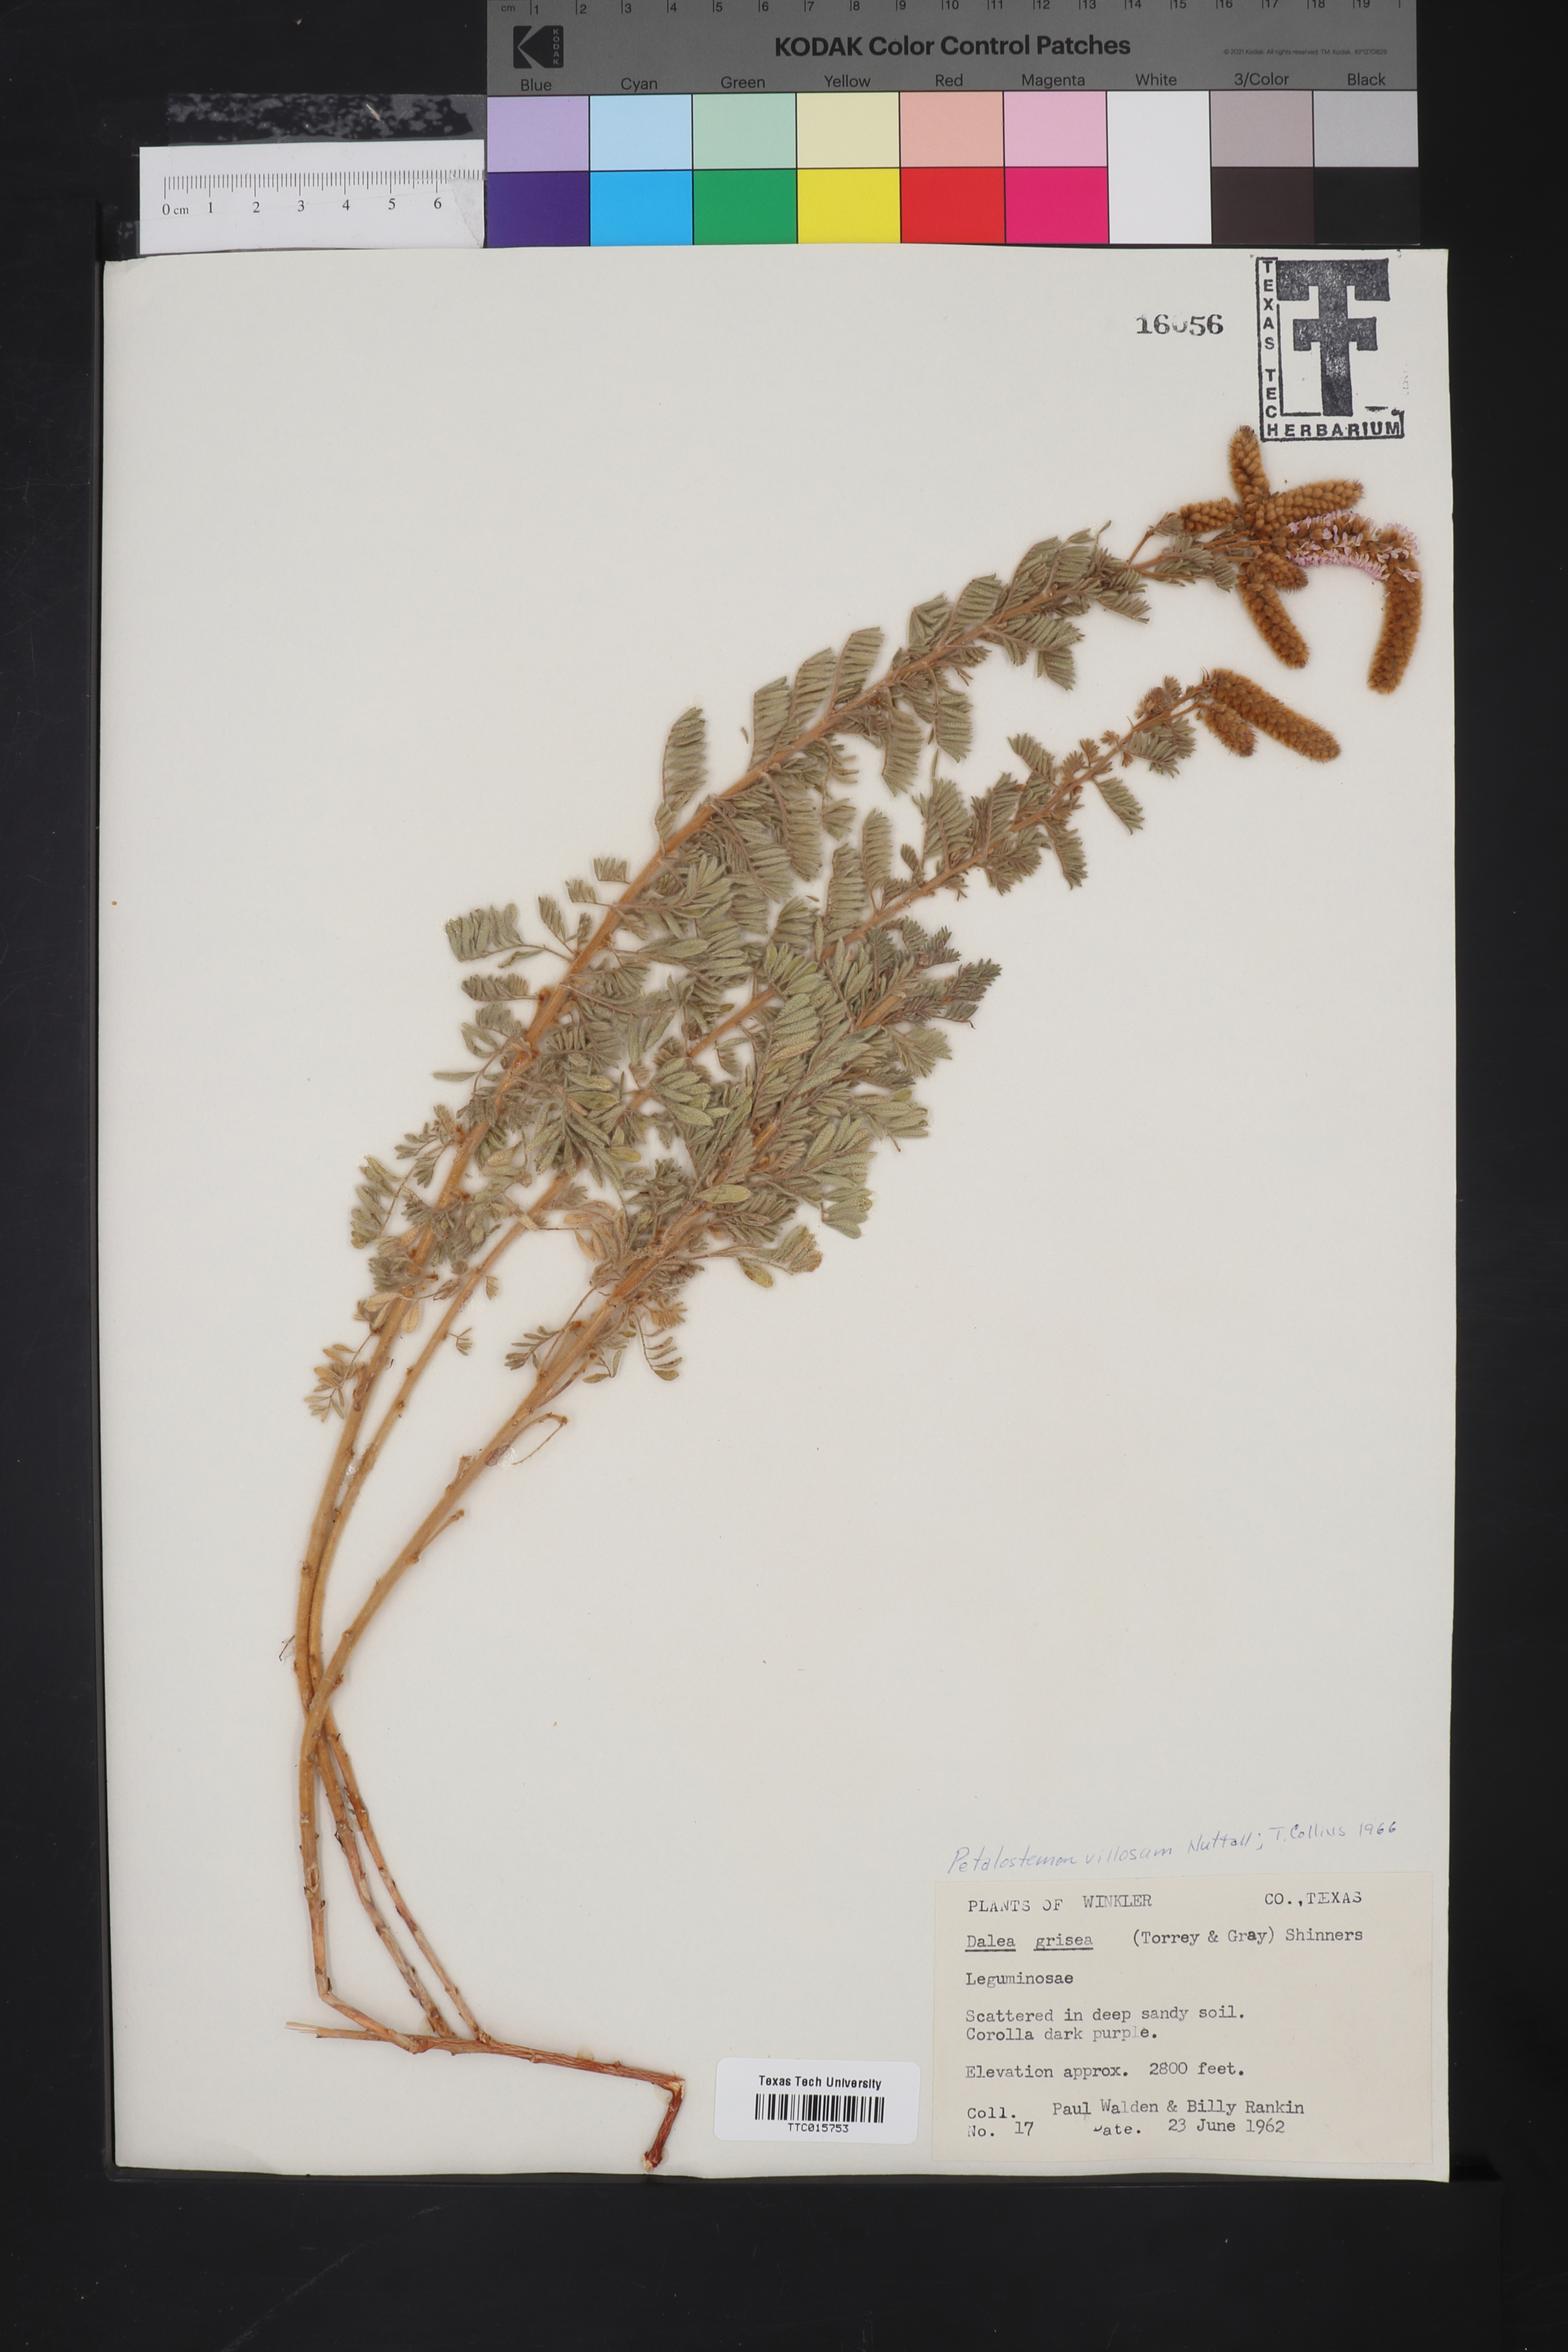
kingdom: Plantae
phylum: Tracheophyta
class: Magnoliopsida
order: Fabales
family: Fabaceae
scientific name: Fabaceae
